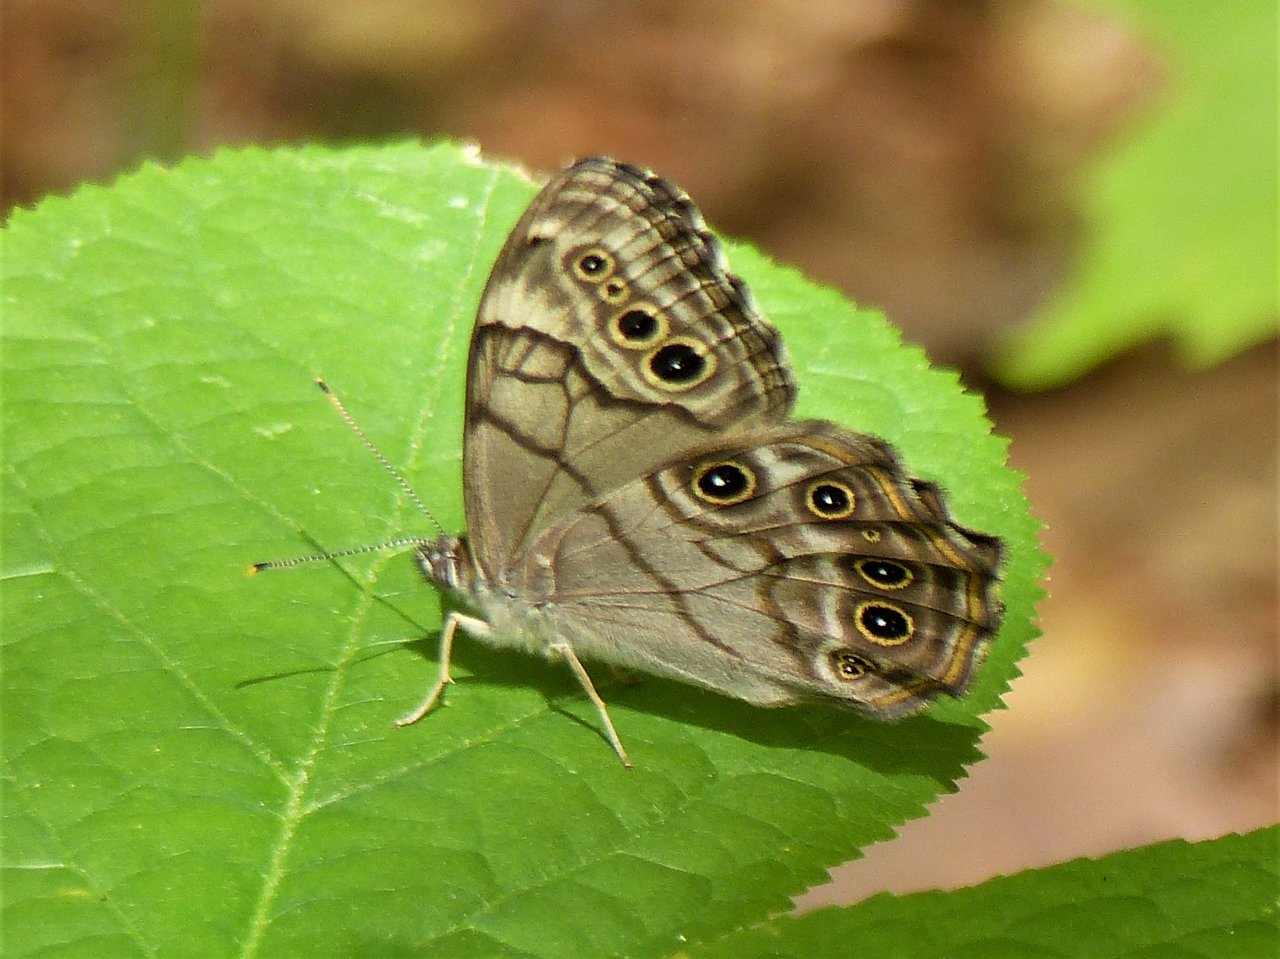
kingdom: Animalia
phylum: Arthropoda
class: Insecta
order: Lepidoptera
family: Nymphalidae
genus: Lethe
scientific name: Lethe anthedon
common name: Northern Pearly-Eye
